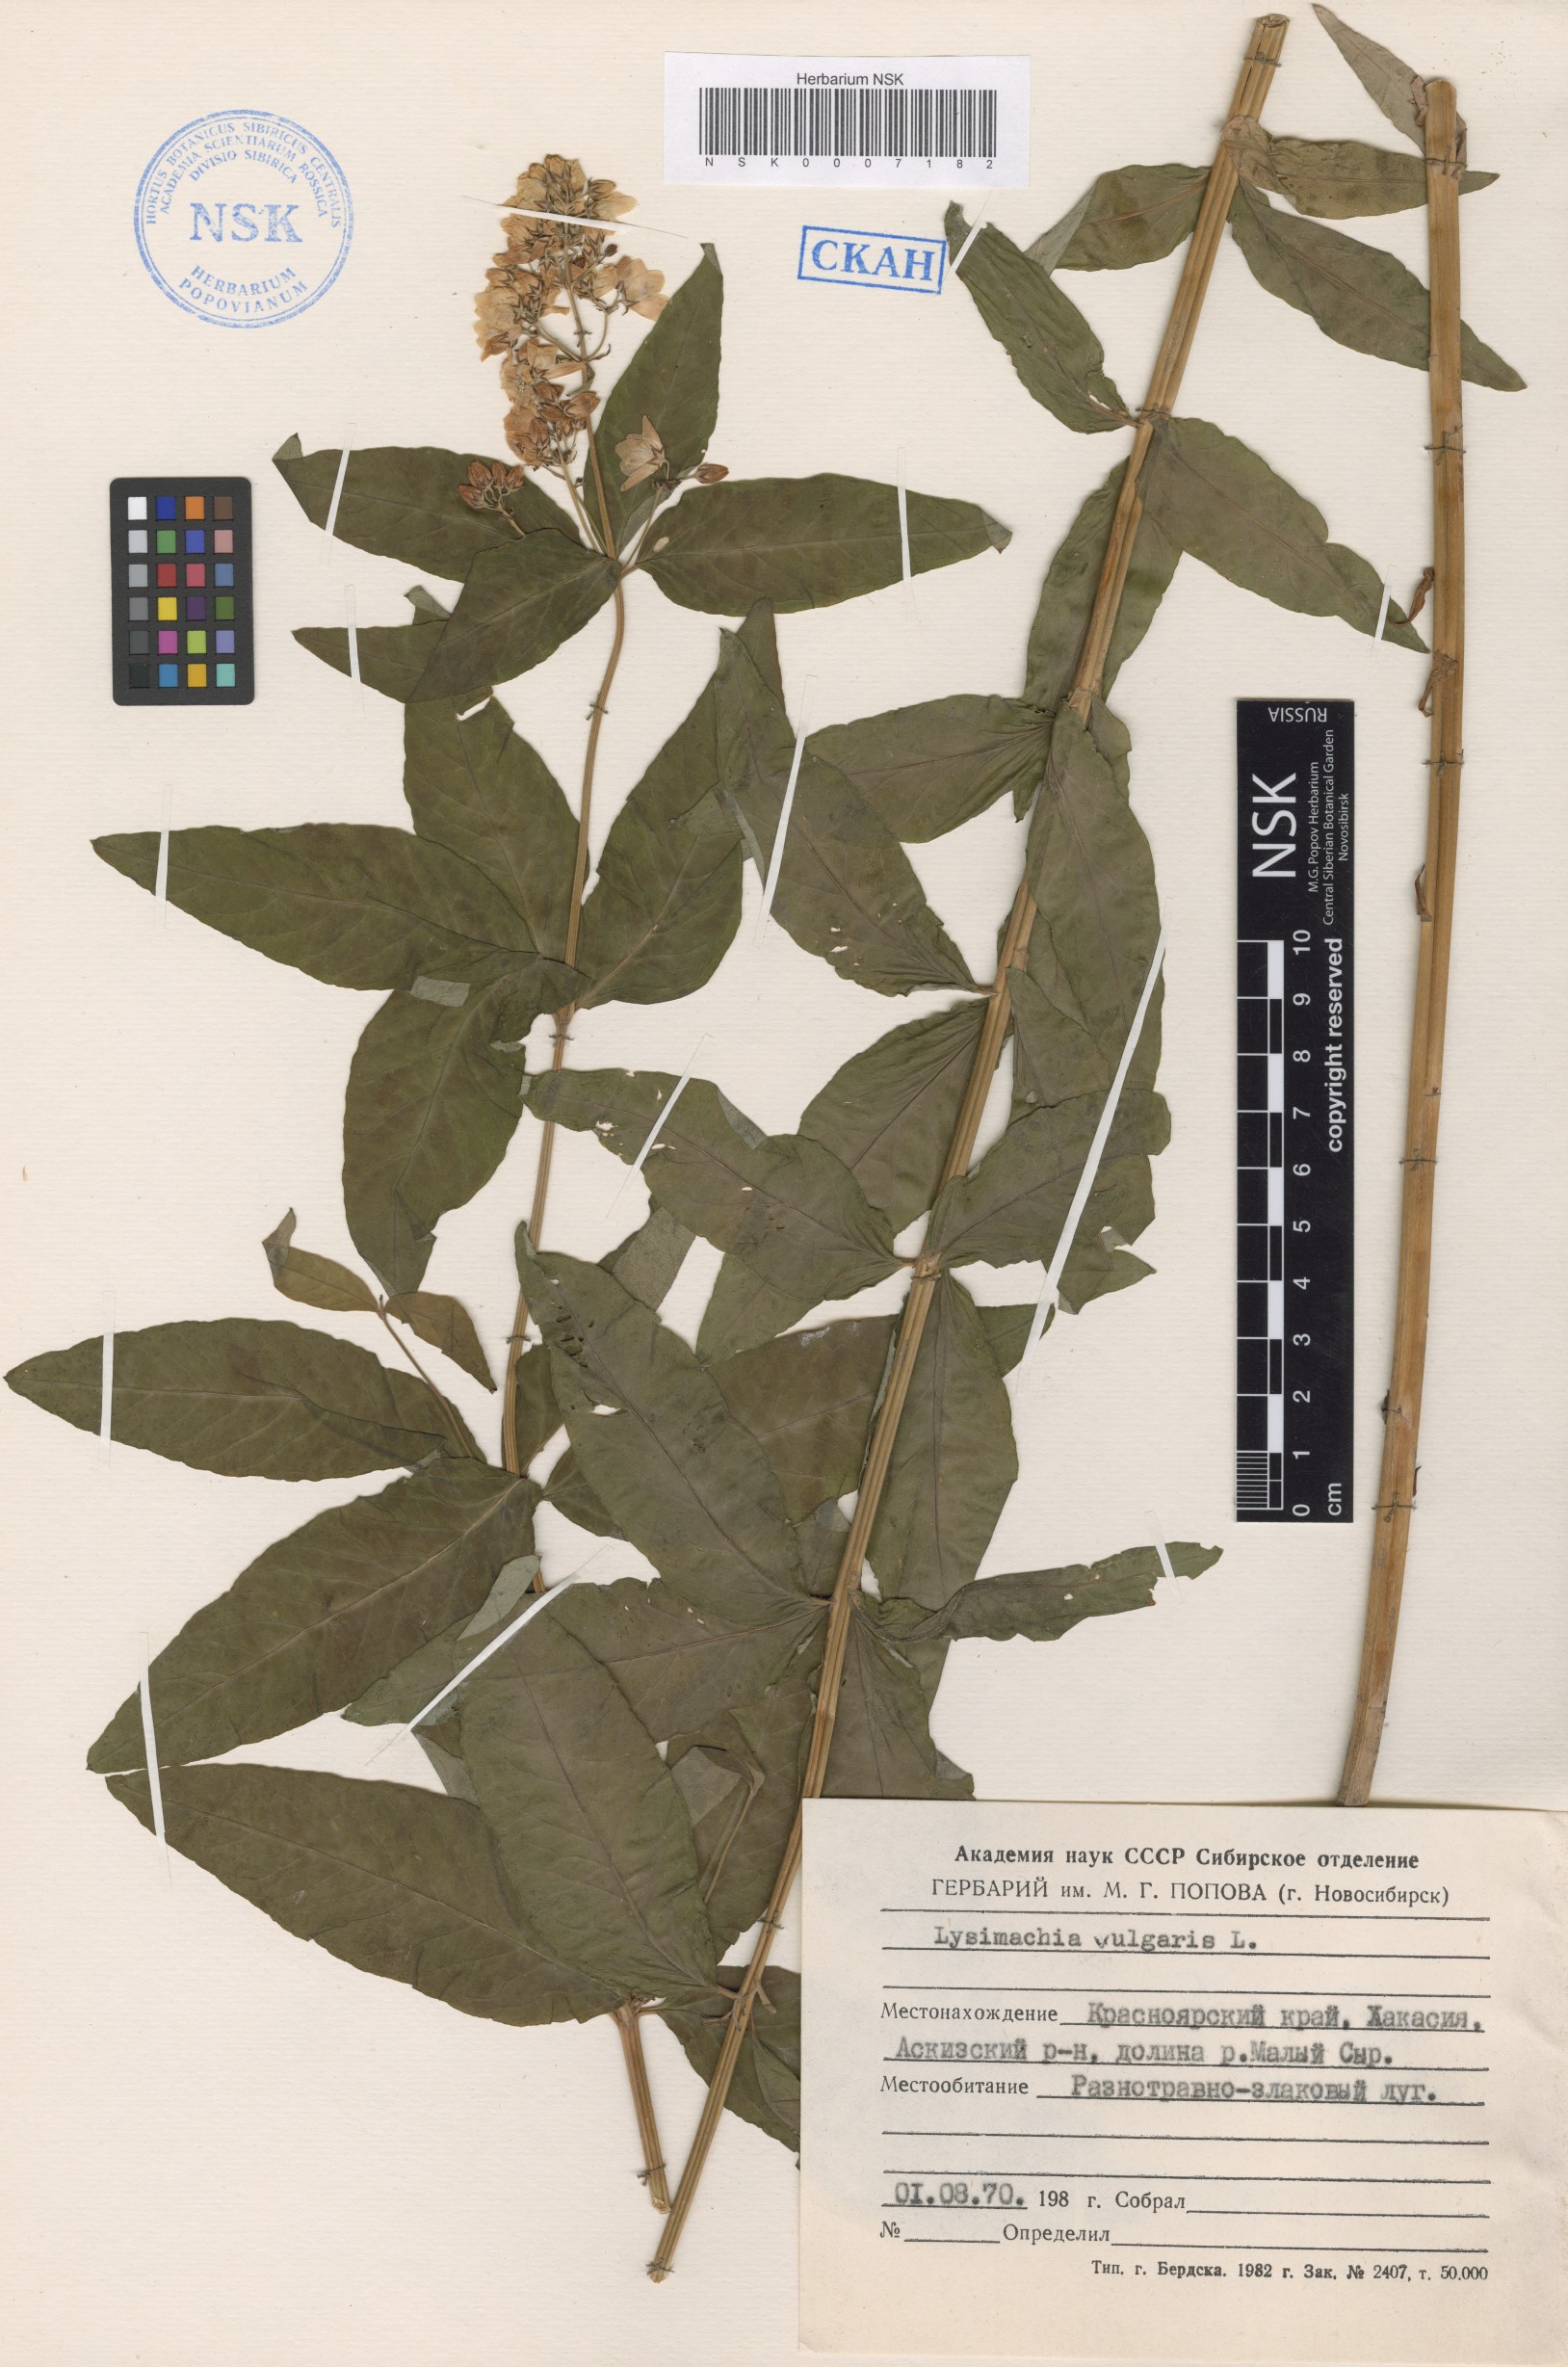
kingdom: Plantae
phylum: Tracheophyta
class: Magnoliopsida
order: Ericales
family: Primulaceae
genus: Lysimachia
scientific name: Lysimachia vulgaris
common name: Yellow loosestrife
